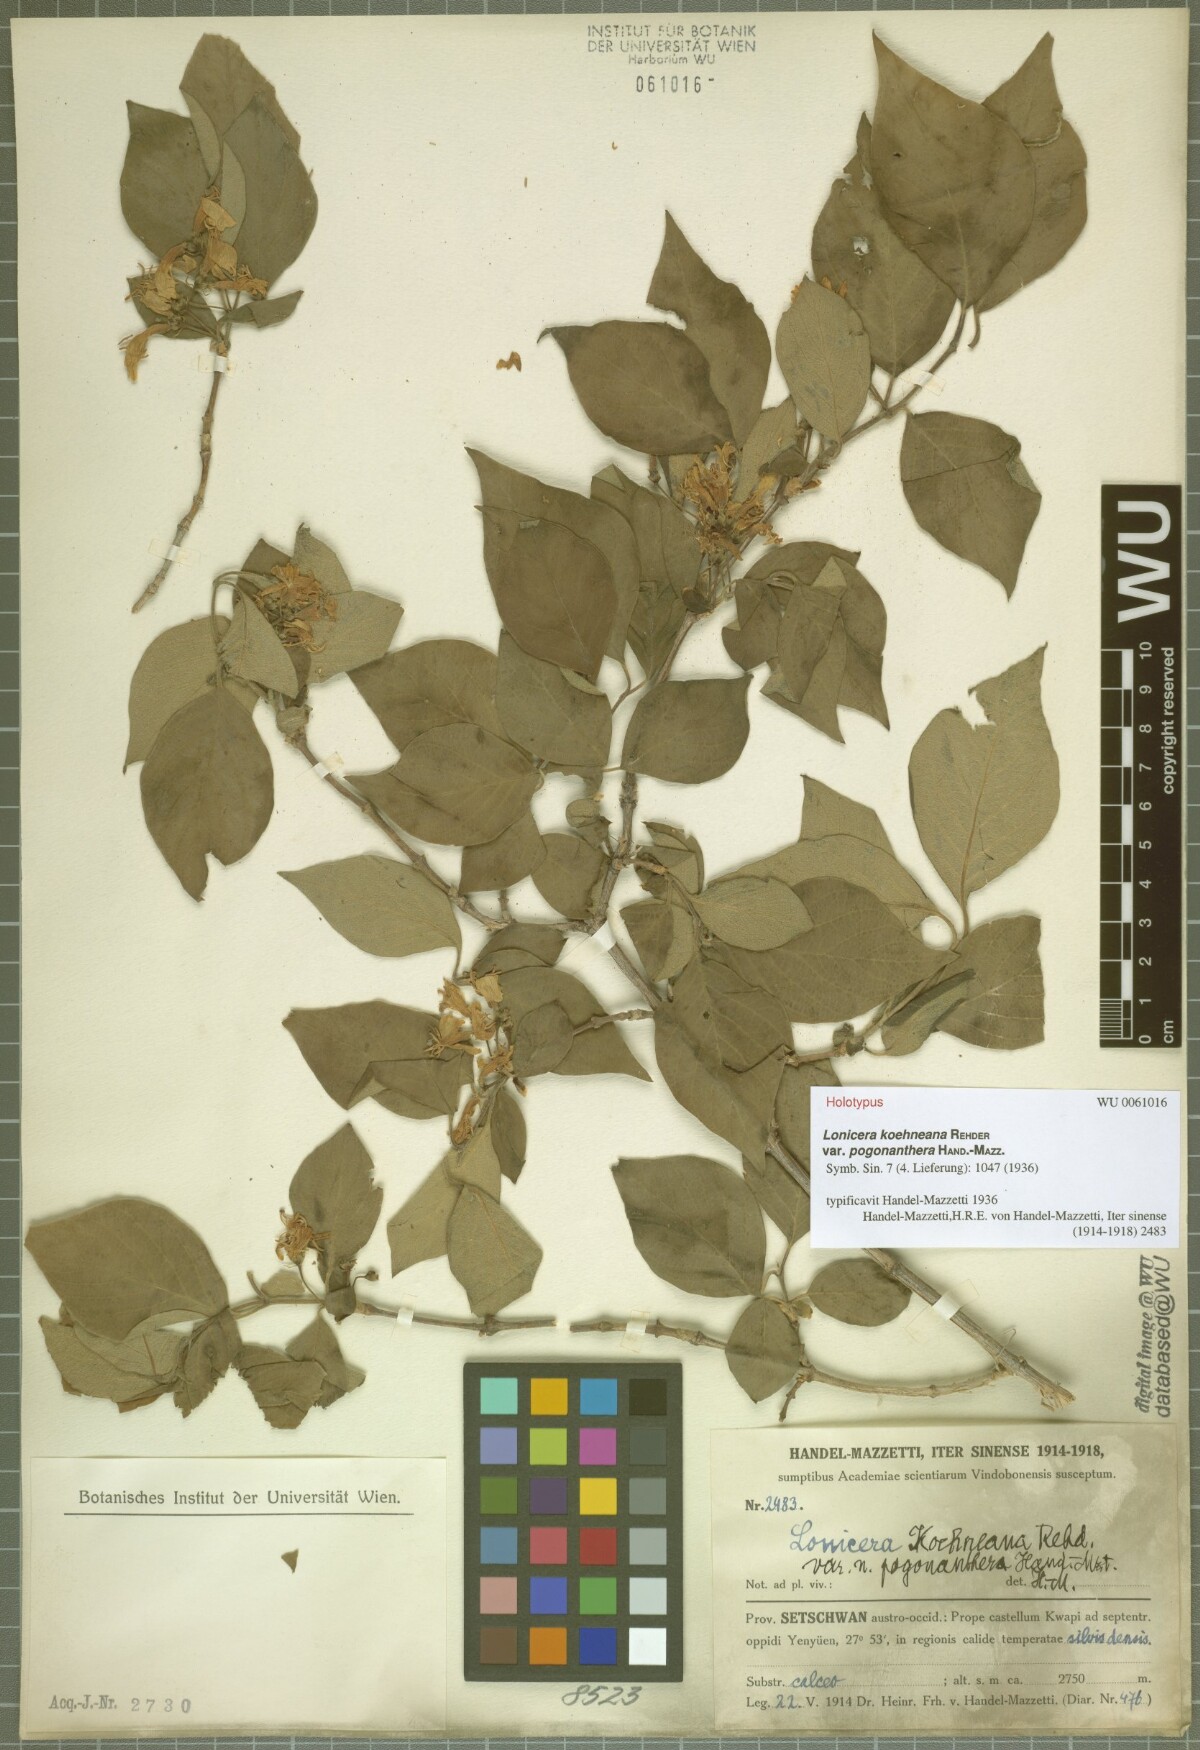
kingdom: Plantae
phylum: Tracheophyta
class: Magnoliopsida
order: Dipsacales
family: Caprifoliaceae
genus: Lonicera
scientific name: Lonicera chrysantha
